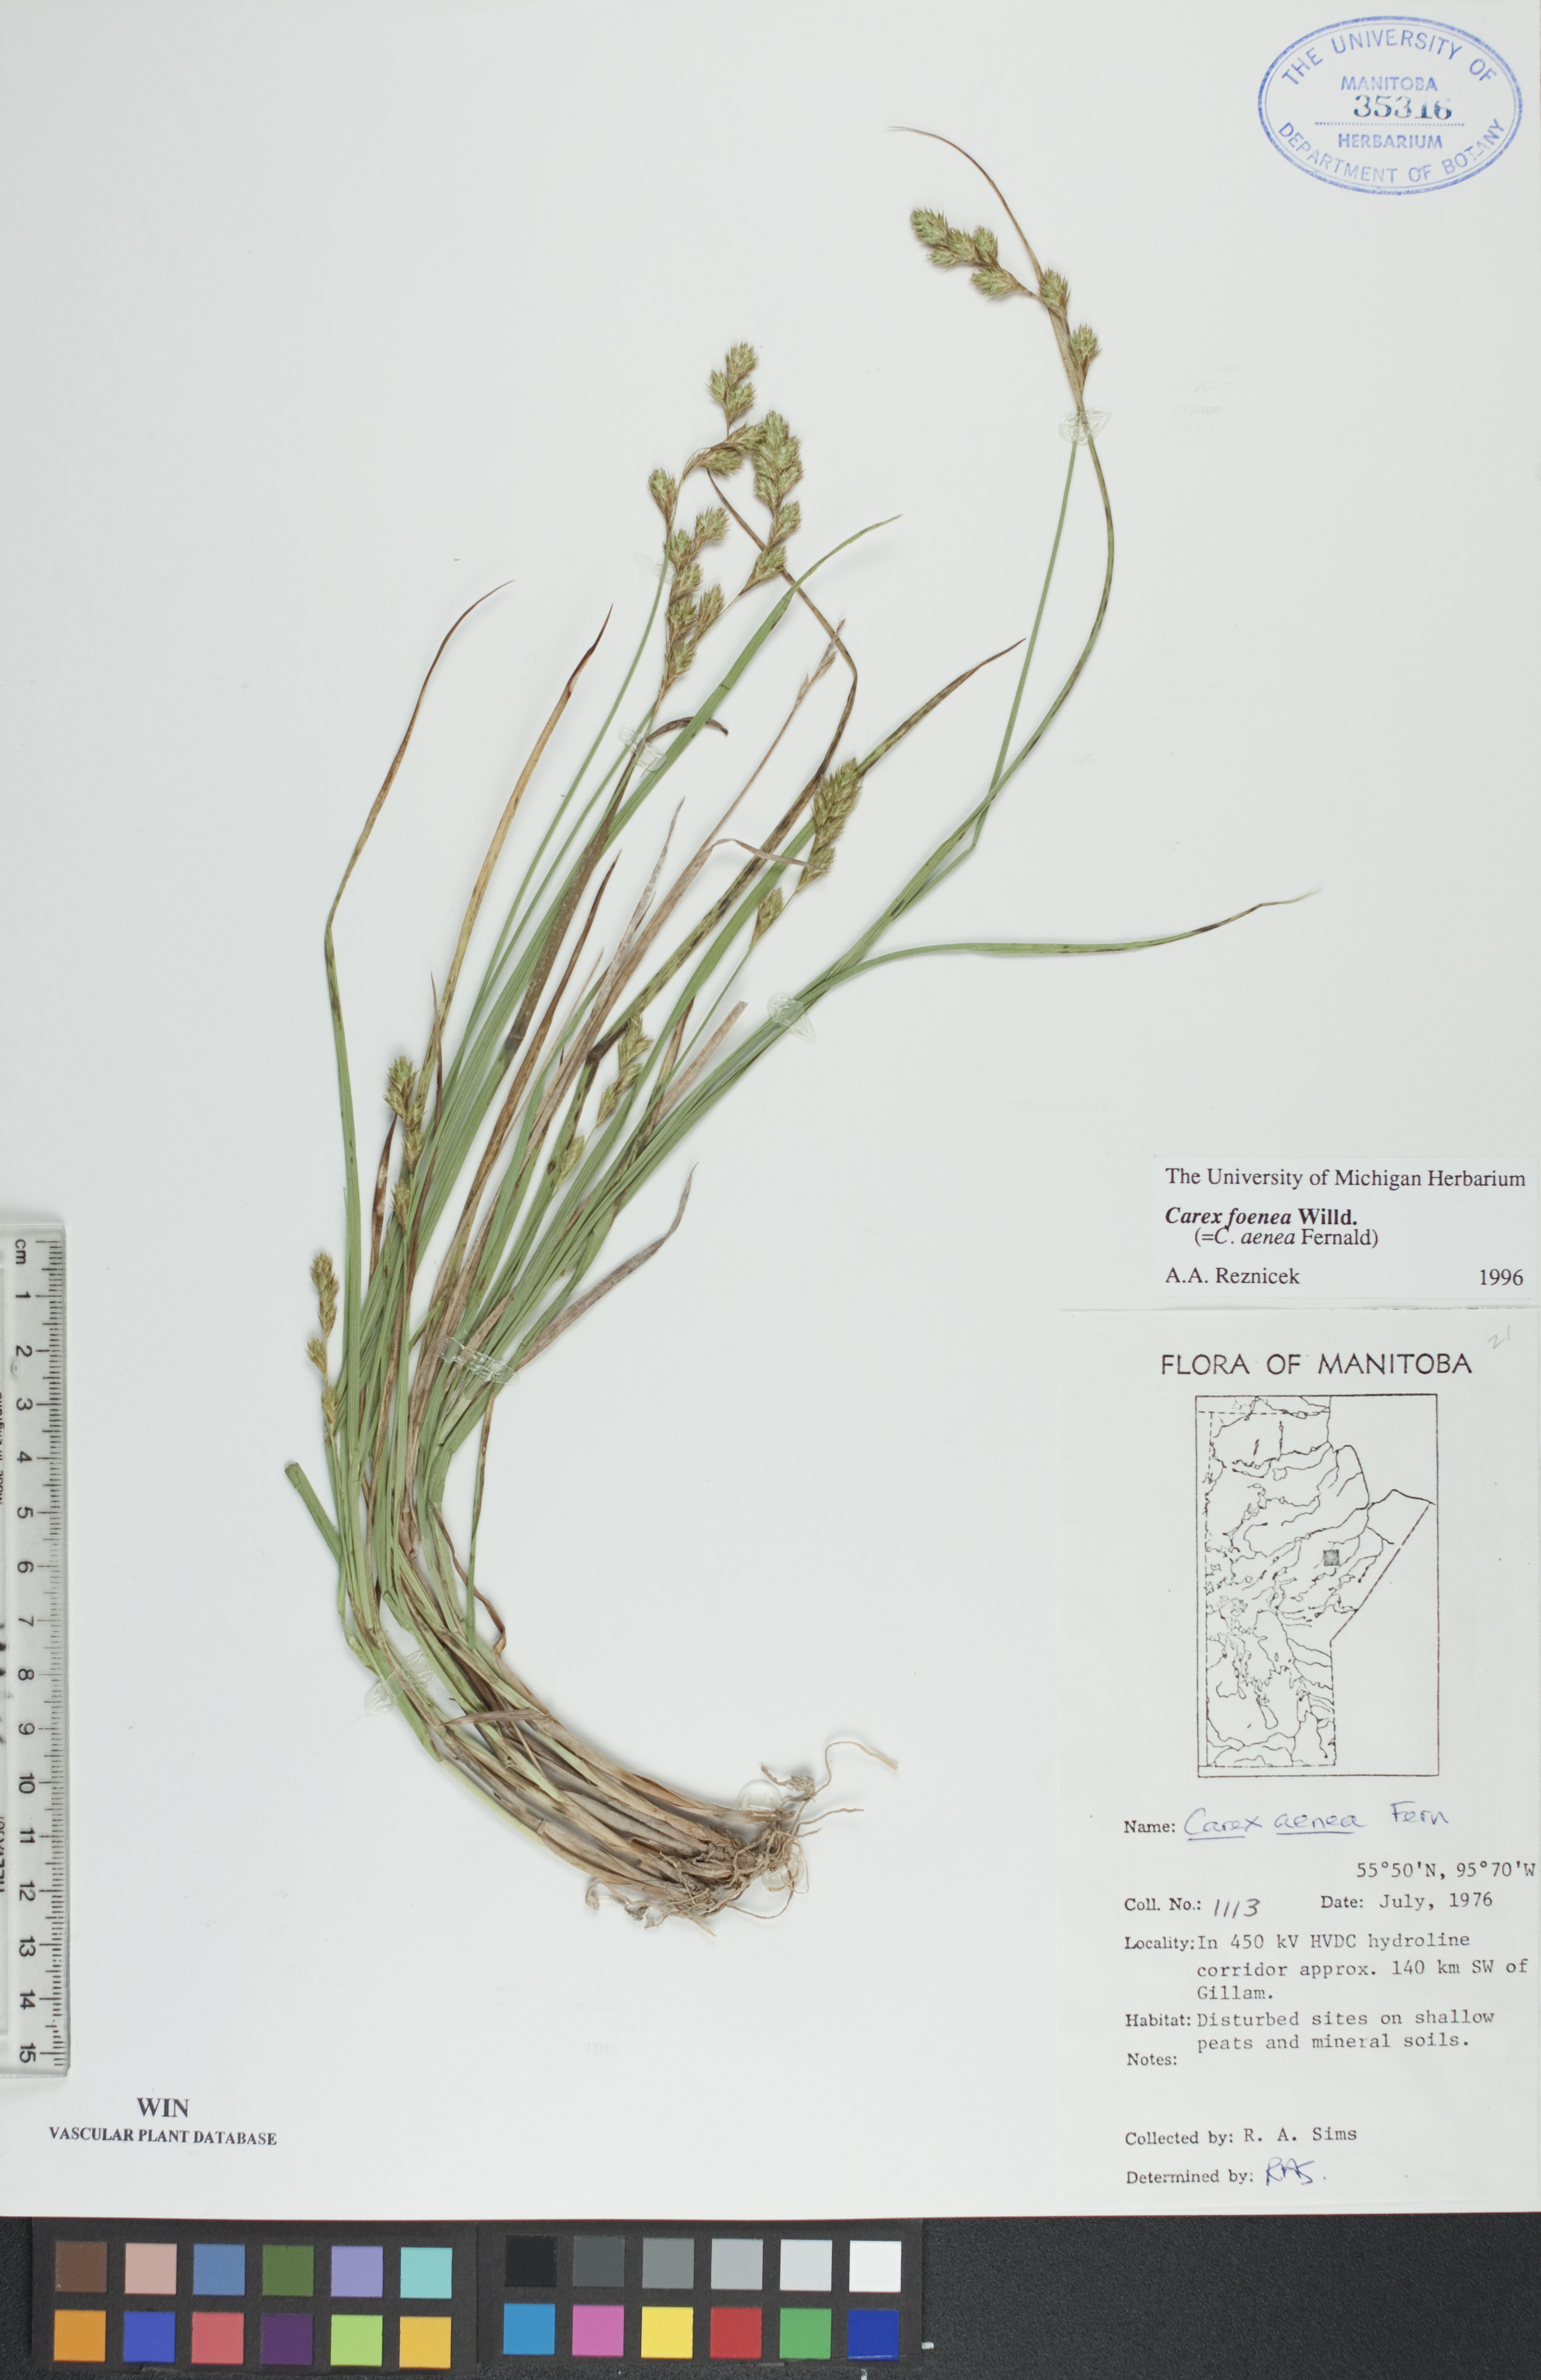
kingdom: Plantae
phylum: Tracheophyta
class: Liliopsida
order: Poales
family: Cyperaceae
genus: Carex
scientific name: Carex foenea
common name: Bronze sedge
